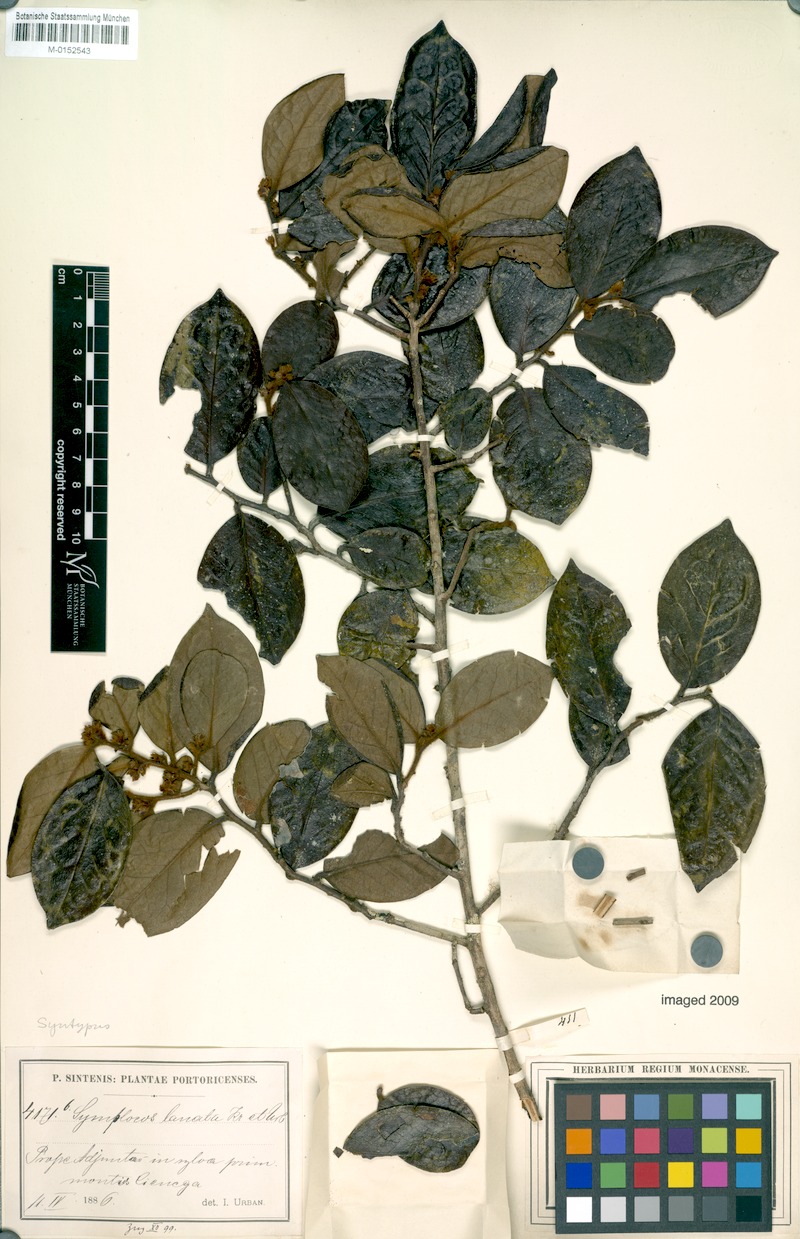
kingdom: Plantae
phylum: Tracheophyta
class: Magnoliopsida
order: Ericales
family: Symplocaceae
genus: Symplocos
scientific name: Symplocos lanata
